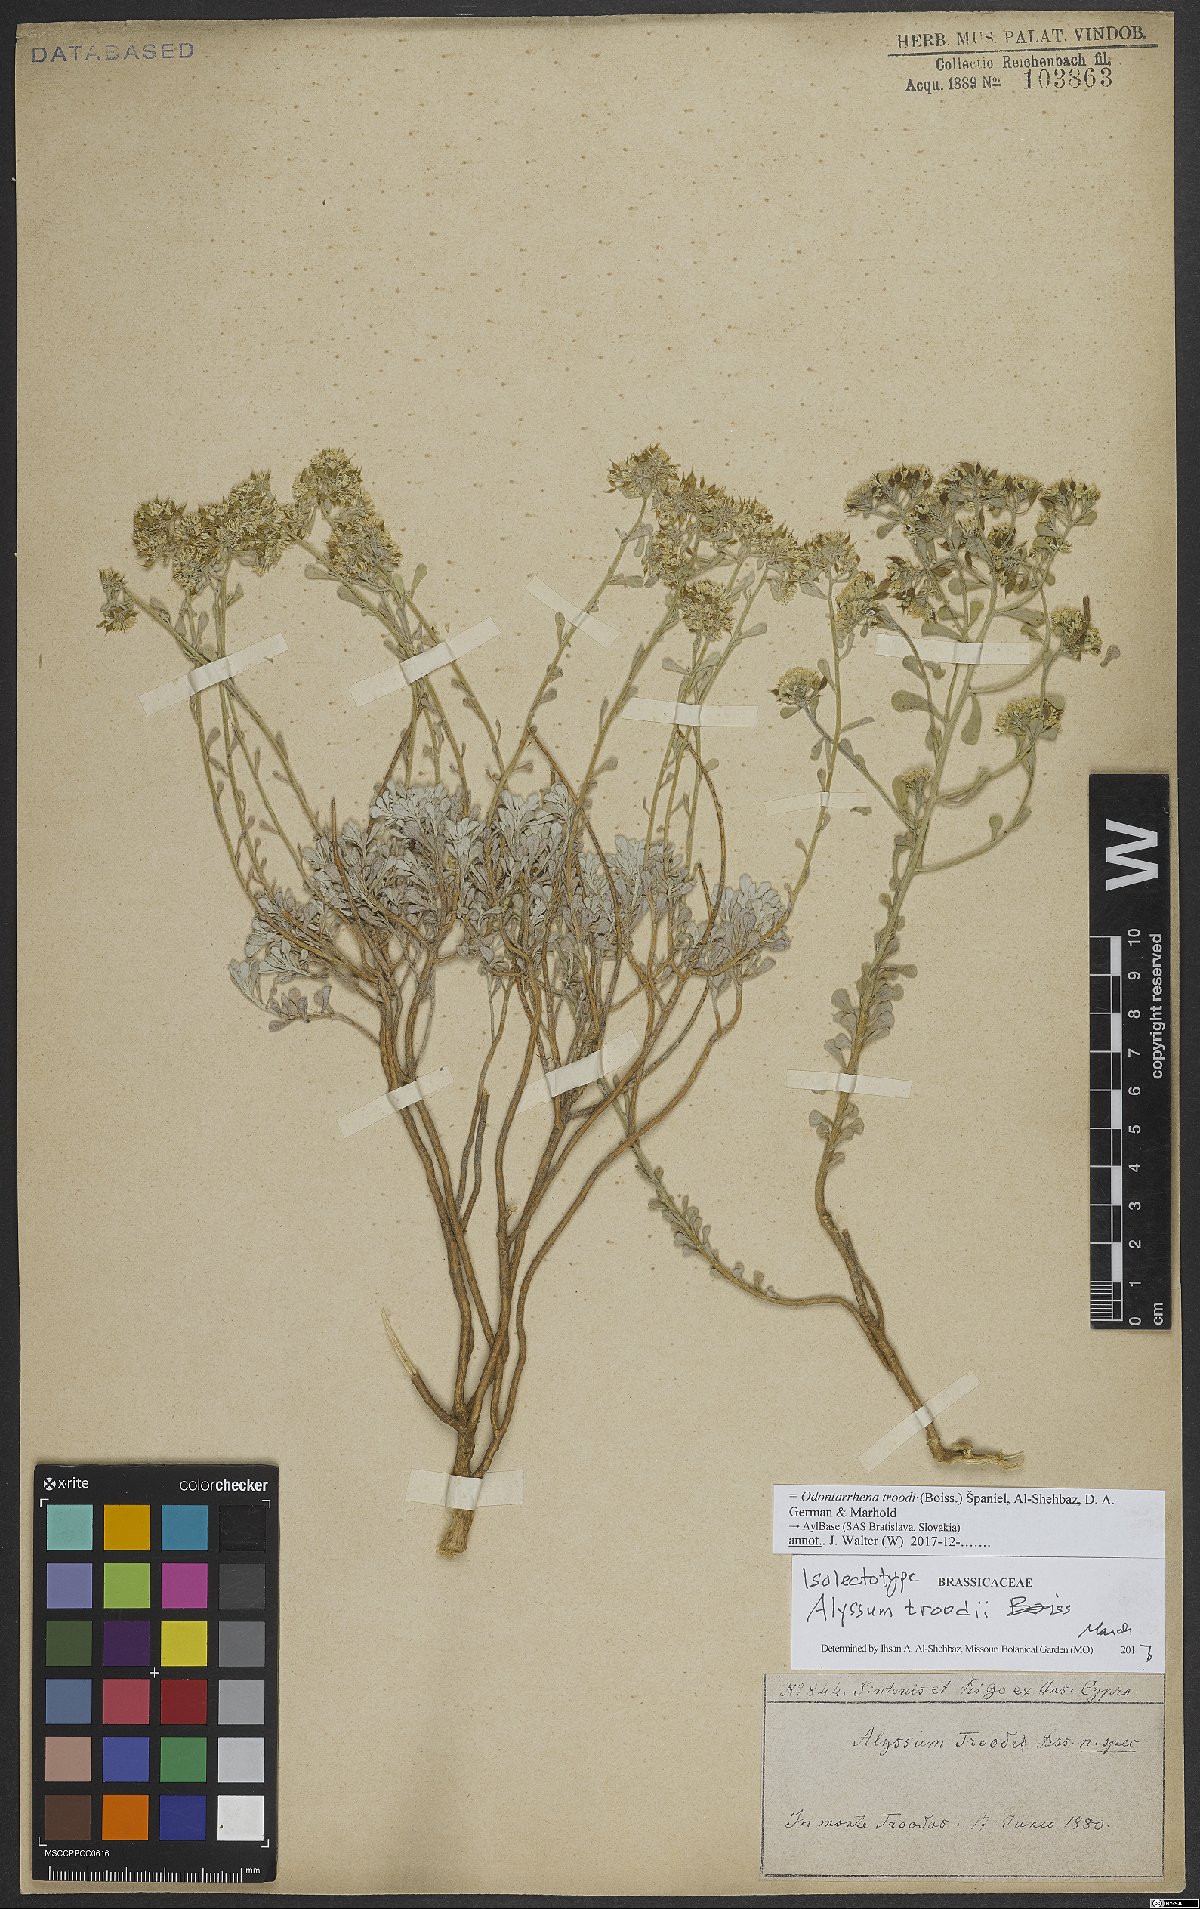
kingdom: Plantae
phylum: Tracheophyta
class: Magnoliopsida
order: Brassicales
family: Brassicaceae
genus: Odontarrhena
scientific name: Odontarrhena troodi
